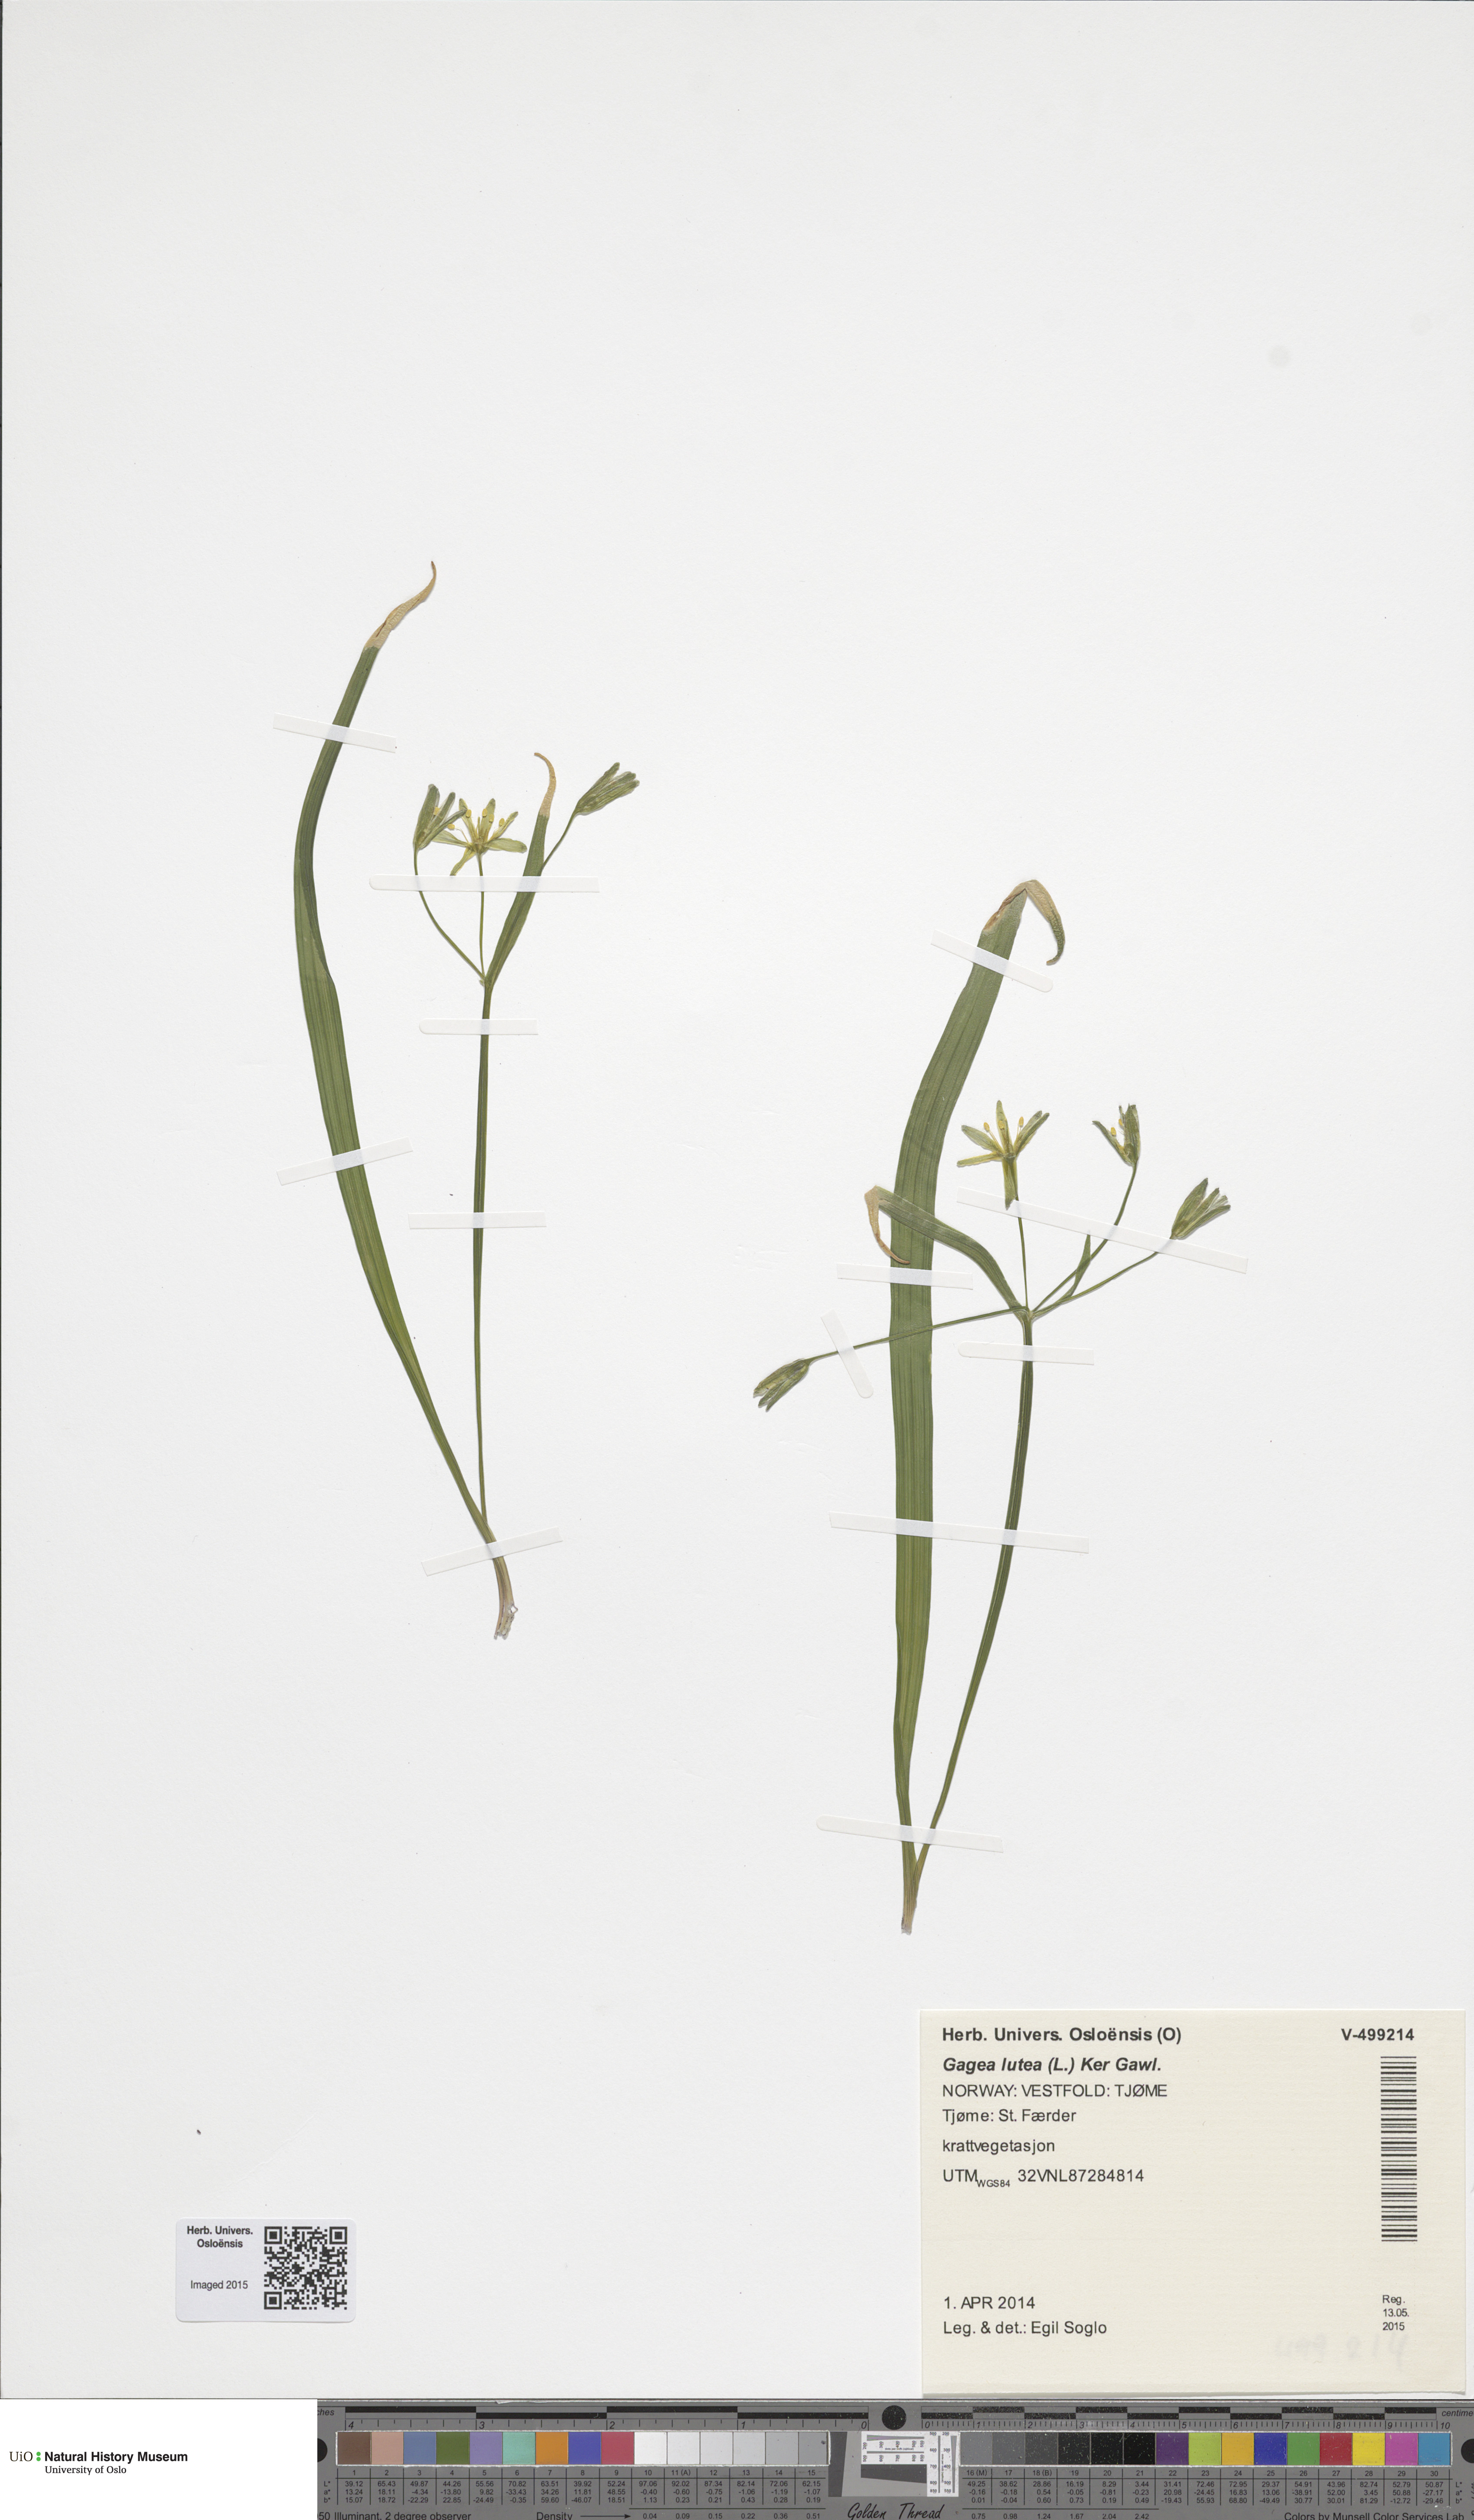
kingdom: Plantae
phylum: Tracheophyta
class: Liliopsida
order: Liliales
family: Liliaceae
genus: Gagea
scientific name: Gagea lutea
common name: Yellow star-of-bethlehem
